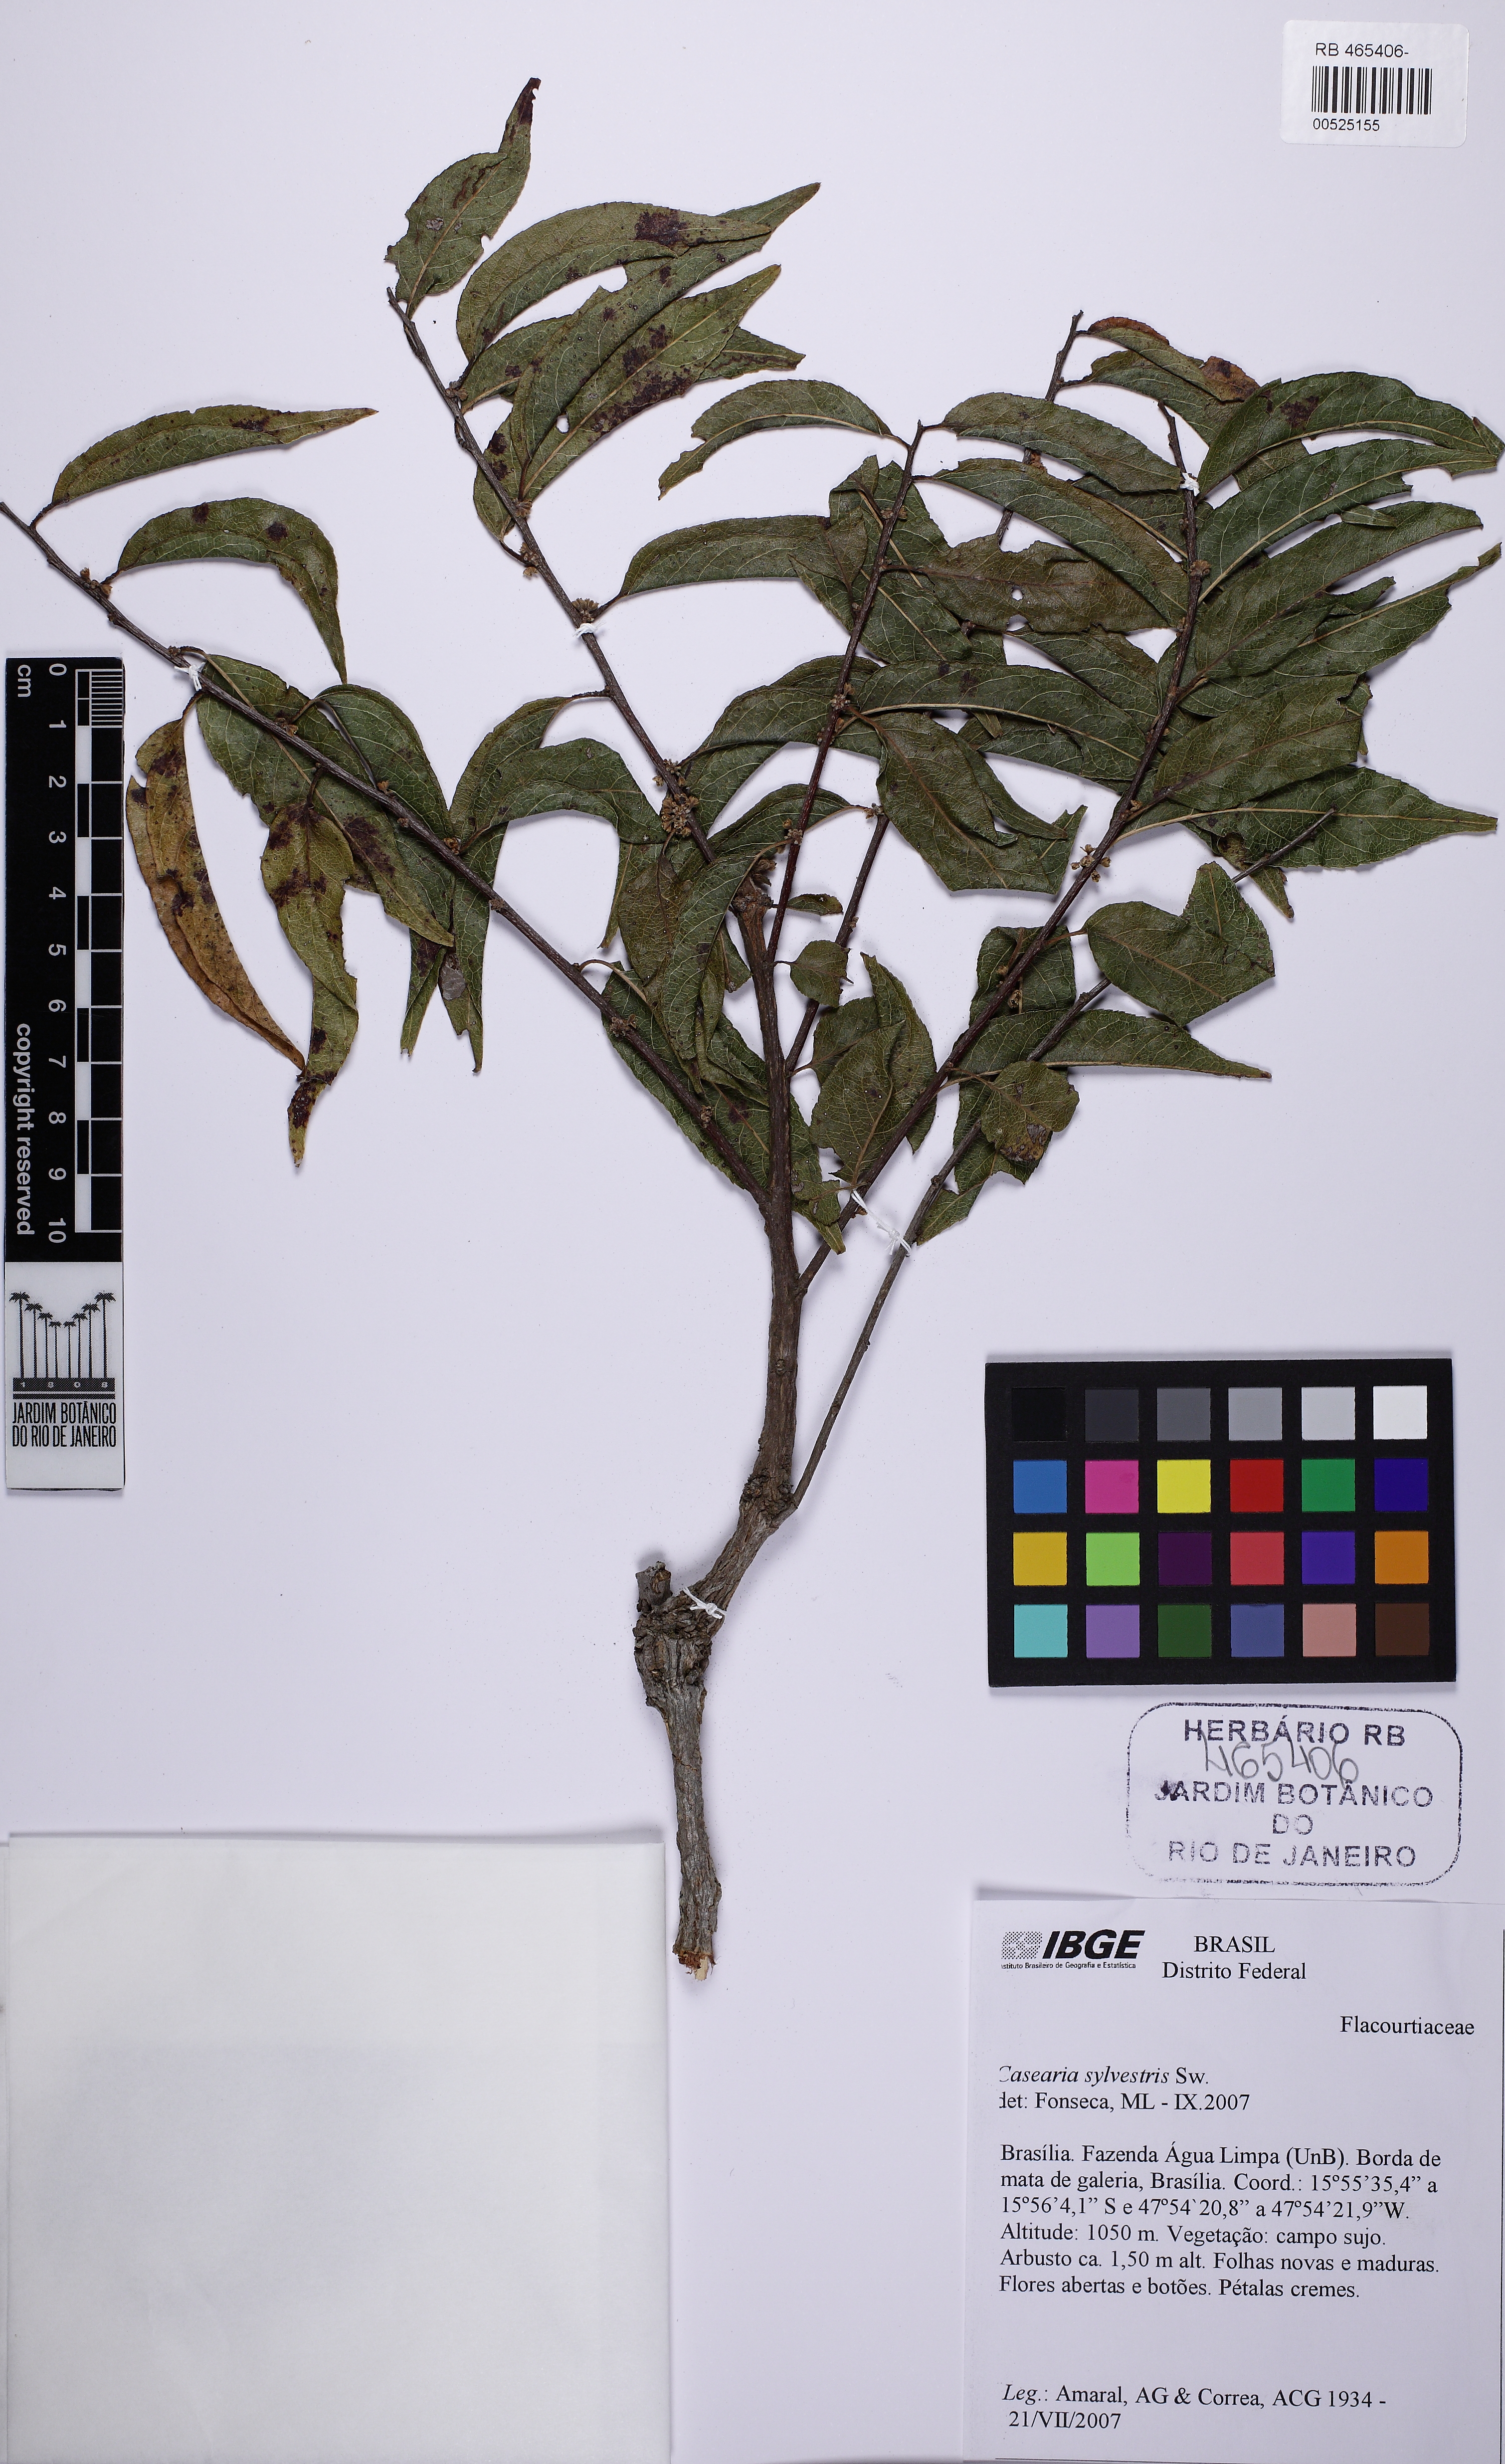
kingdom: Plantae
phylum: Tracheophyta
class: Magnoliopsida
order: Malpighiales
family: Salicaceae
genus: Casearia
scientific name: Casearia sylvestris
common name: Wild sage
